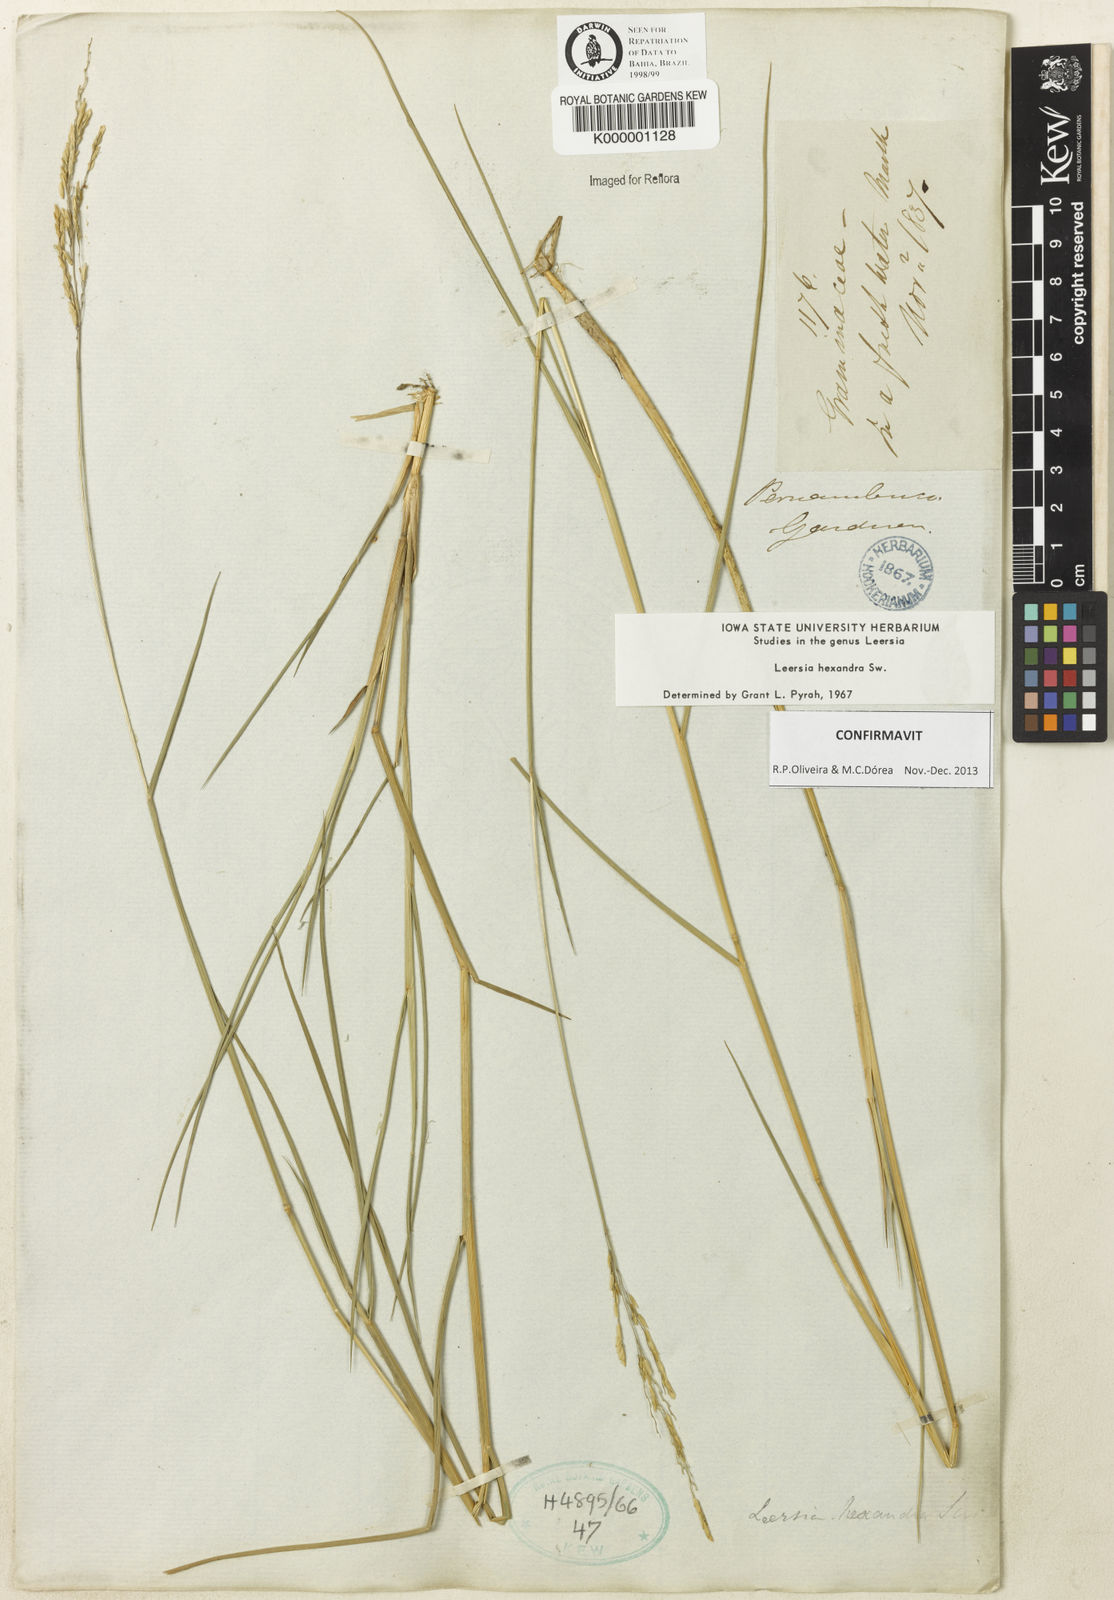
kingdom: Plantae
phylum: Tracheophyta
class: Liliopsida
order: Poales
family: Poaceae
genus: Leersia
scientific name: Leersia hexandra
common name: Southern cut grass
